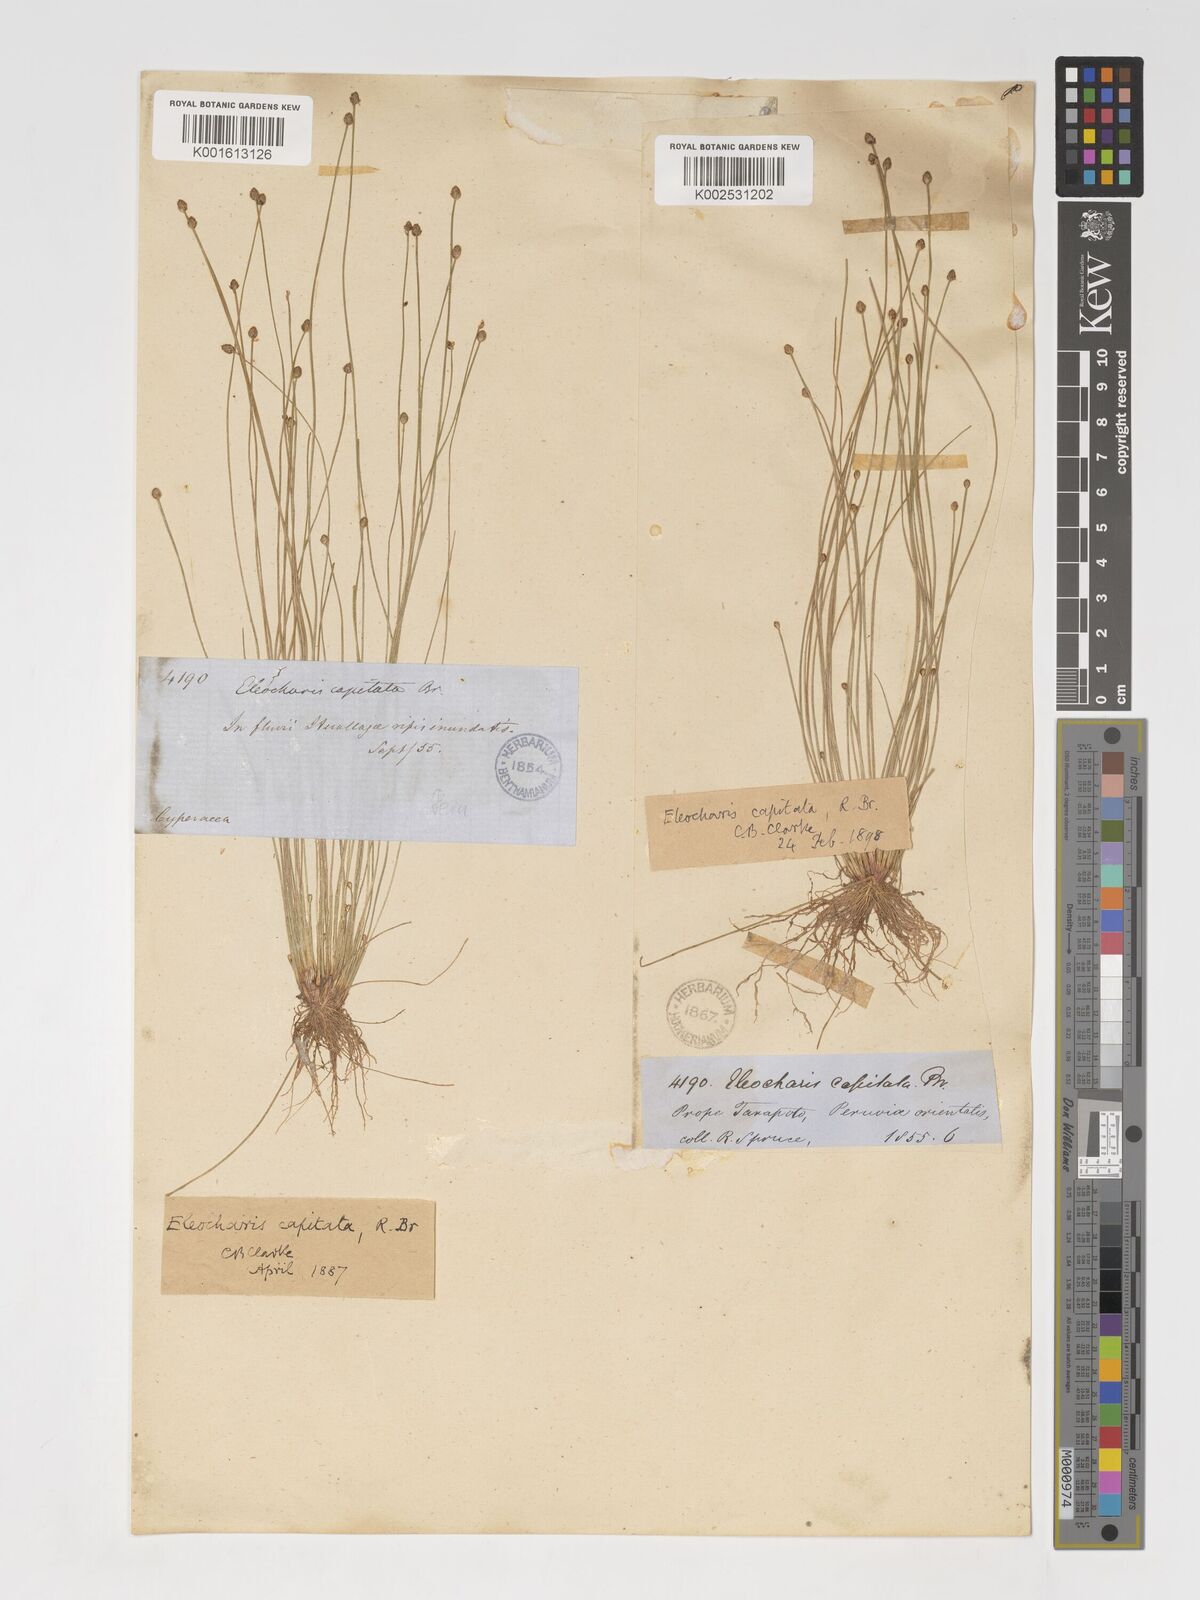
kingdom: Plantae
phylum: Tracheophyta
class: Liliopsida
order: Poales
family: Cyperaceae
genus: Eleocharis
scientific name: Eleocharis geniculata
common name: Canada spikesedge
